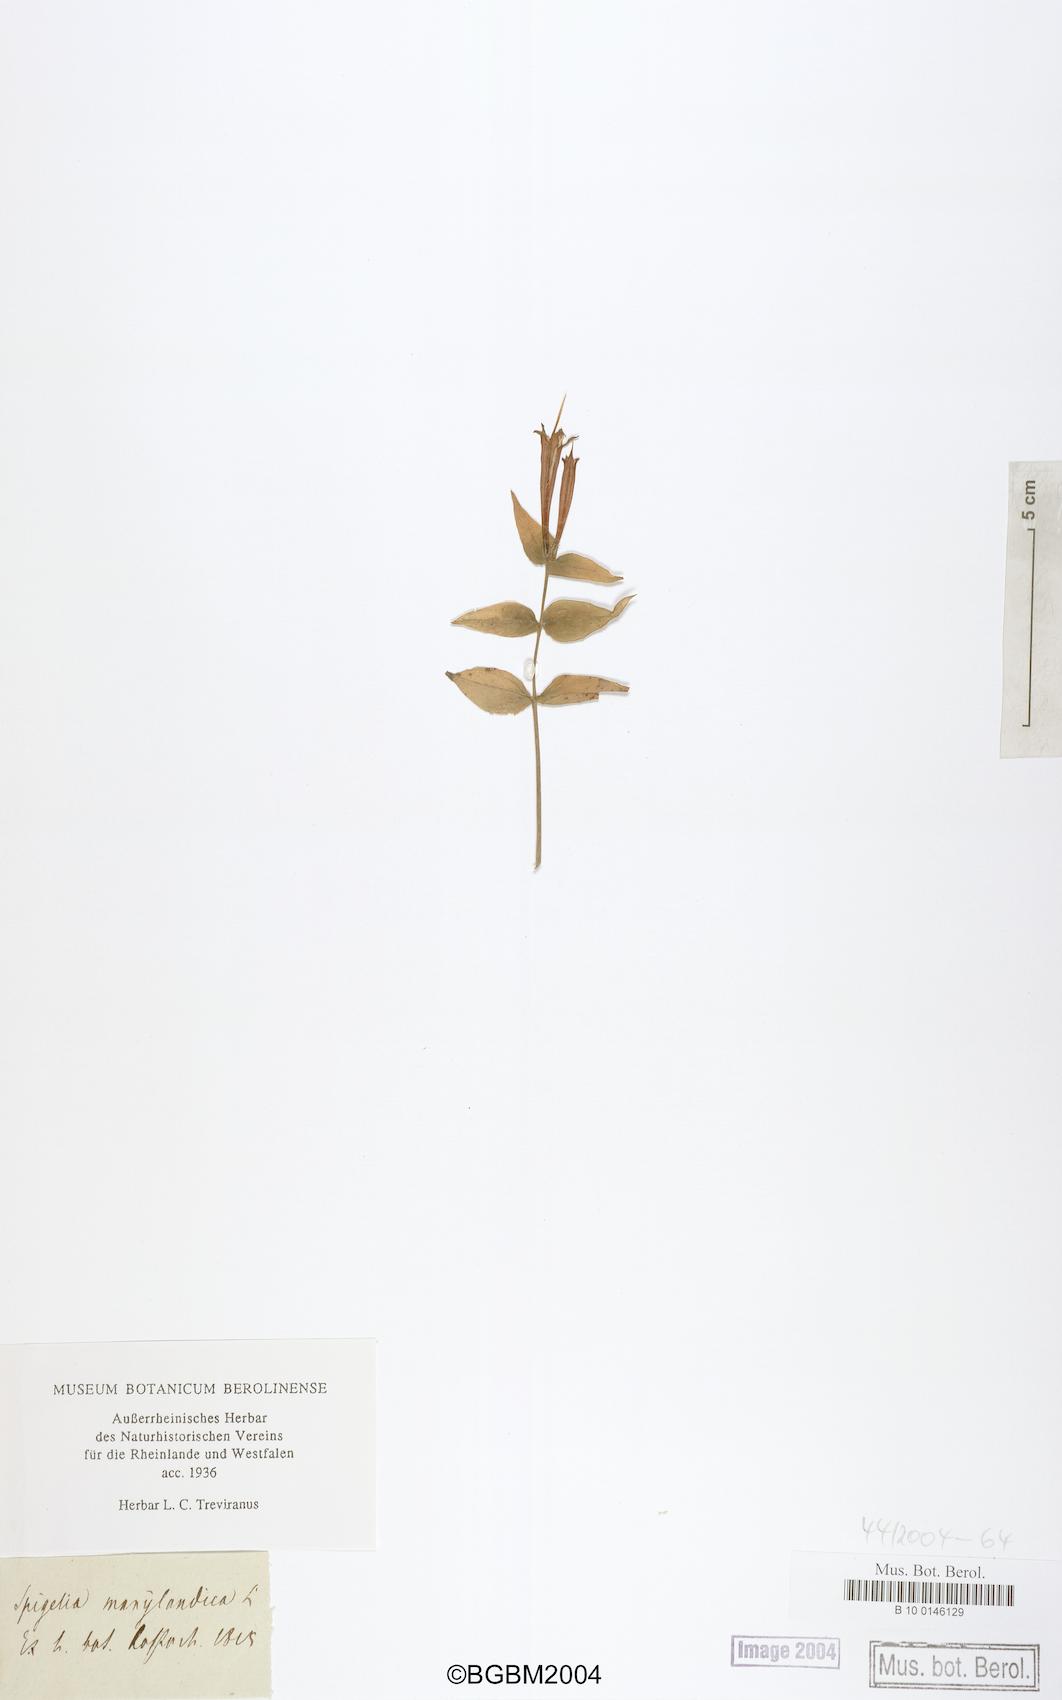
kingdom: Plantae
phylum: Tracheophyta
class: Magnoliopsida
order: Gentianales
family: Loganiaceae
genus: Spigelia
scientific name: Spigelia marilandica
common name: Indian-pink
